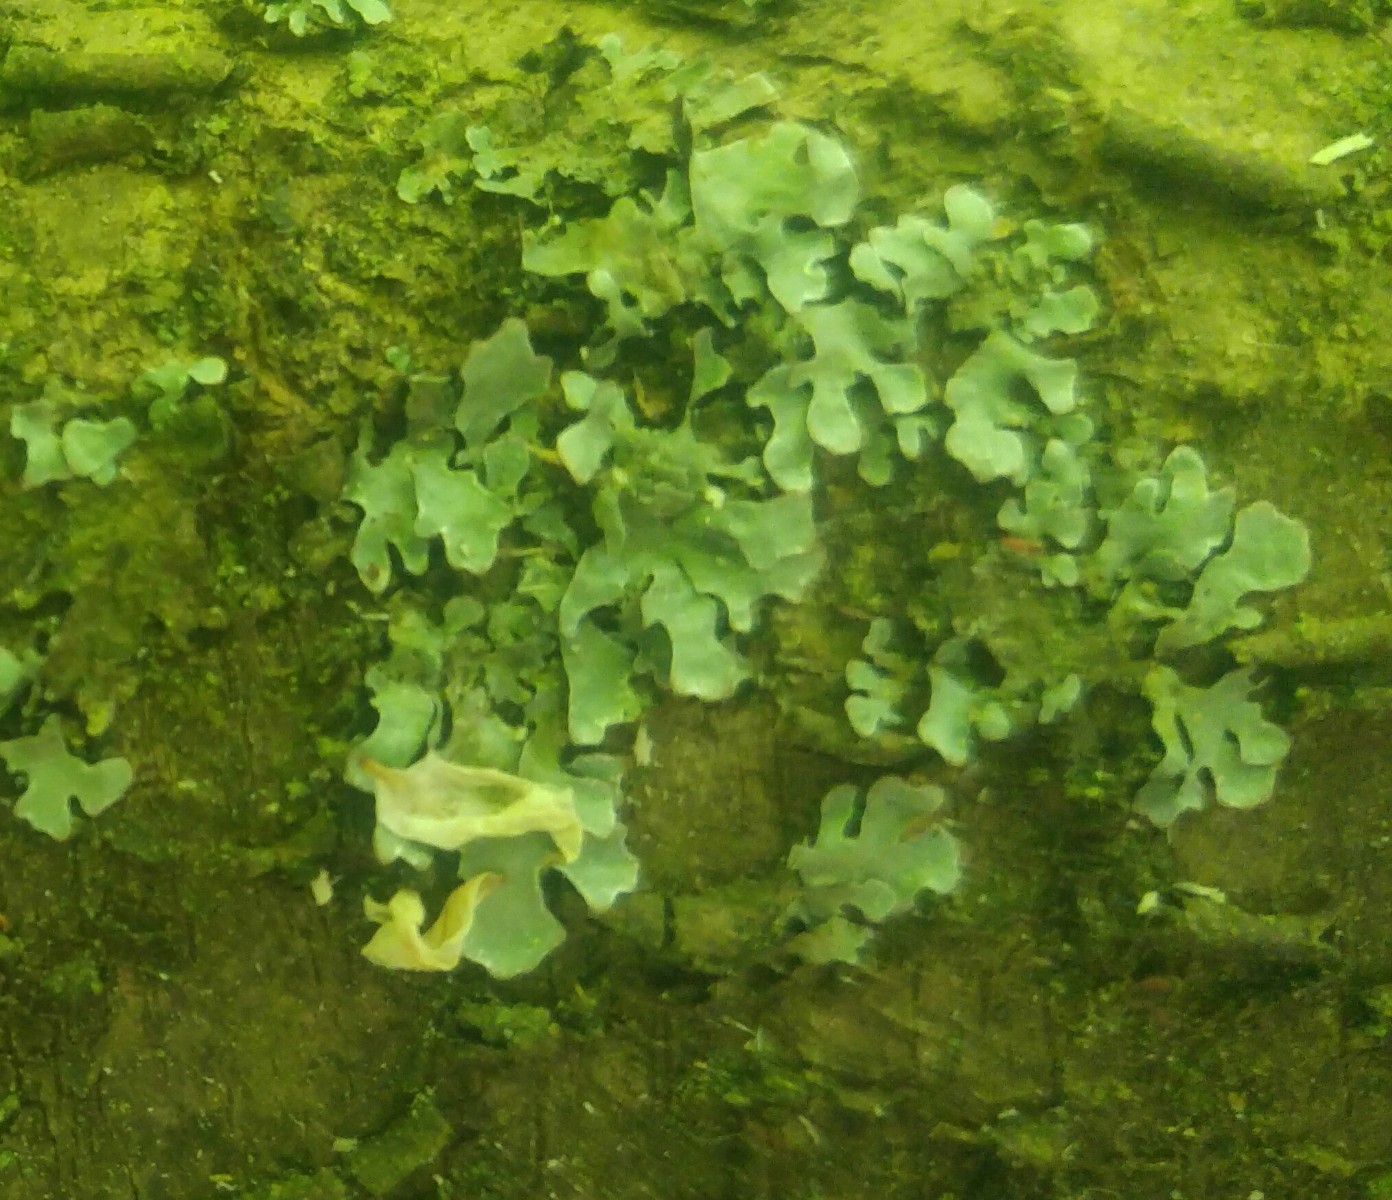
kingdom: Fungi
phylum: Ascomycota
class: Lecanoromycetes
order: Lecanorales
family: Parmeliaceae
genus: Parmelia
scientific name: Parmelia sulcata
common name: rynket skållav
